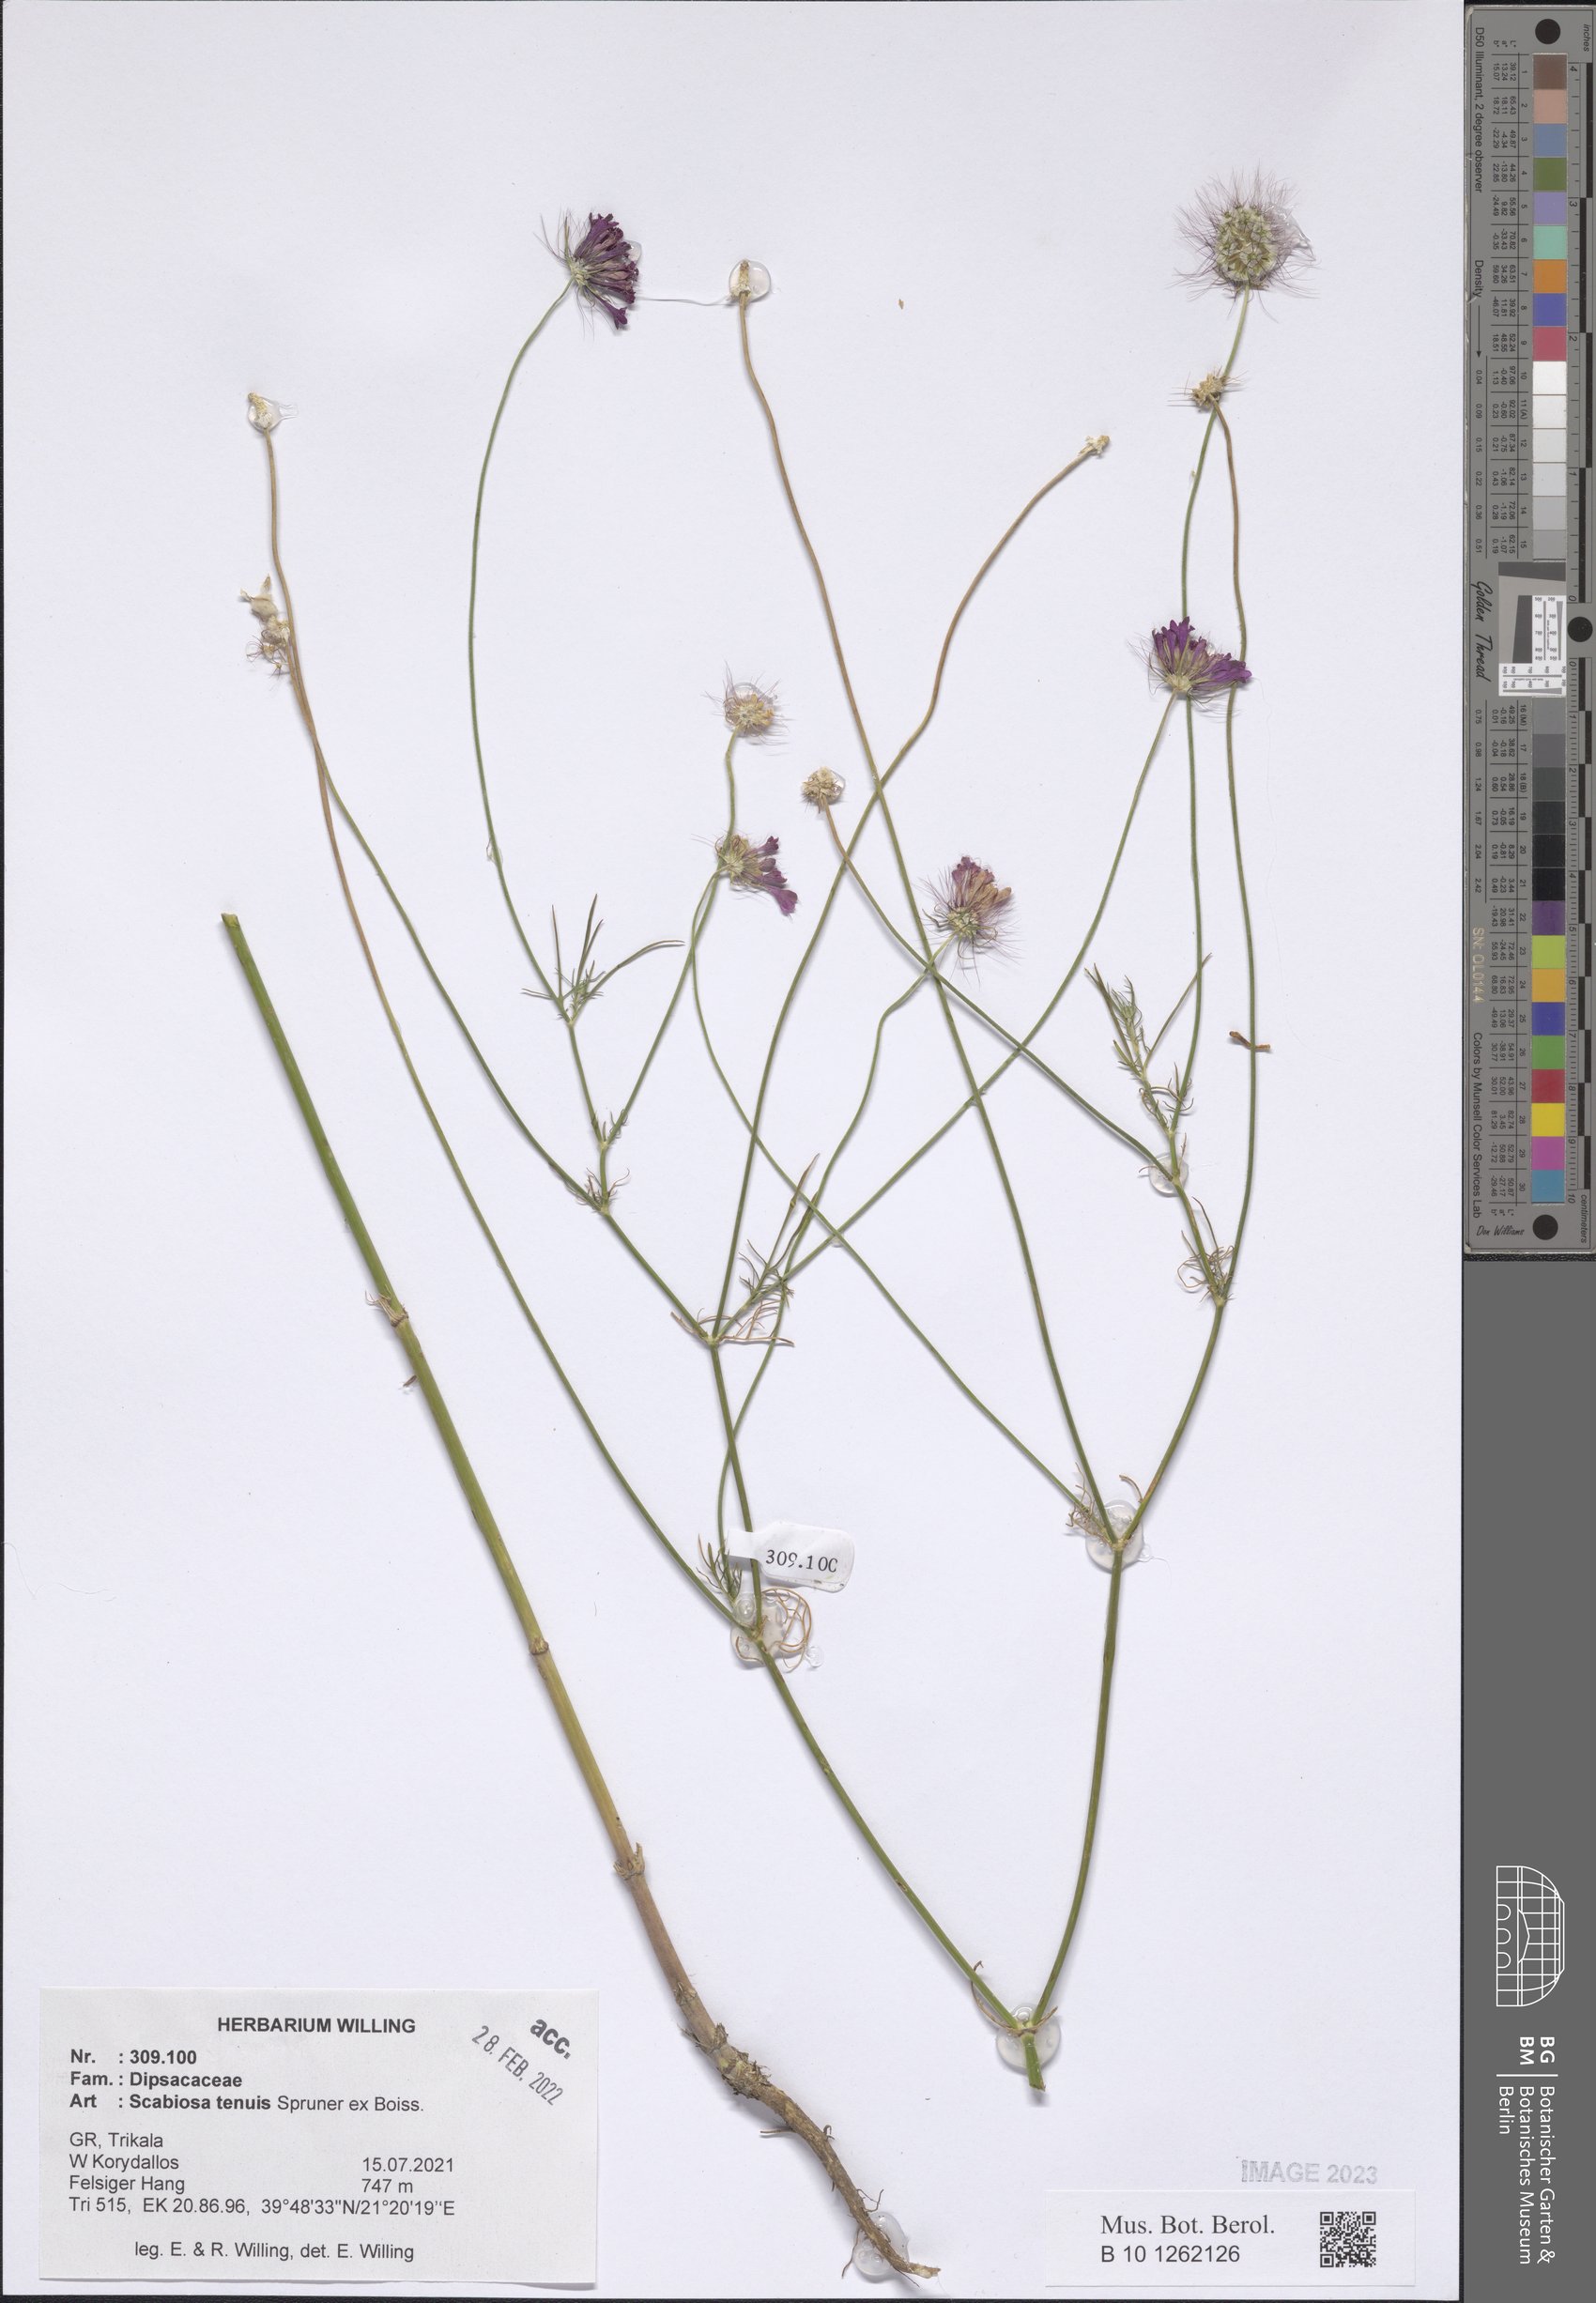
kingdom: Plantae
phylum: Tracheophyta
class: Magnoliopsida
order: Dipsacales
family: Caprifoliaceae
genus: Scabiosa
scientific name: Scabiosa tenuis
